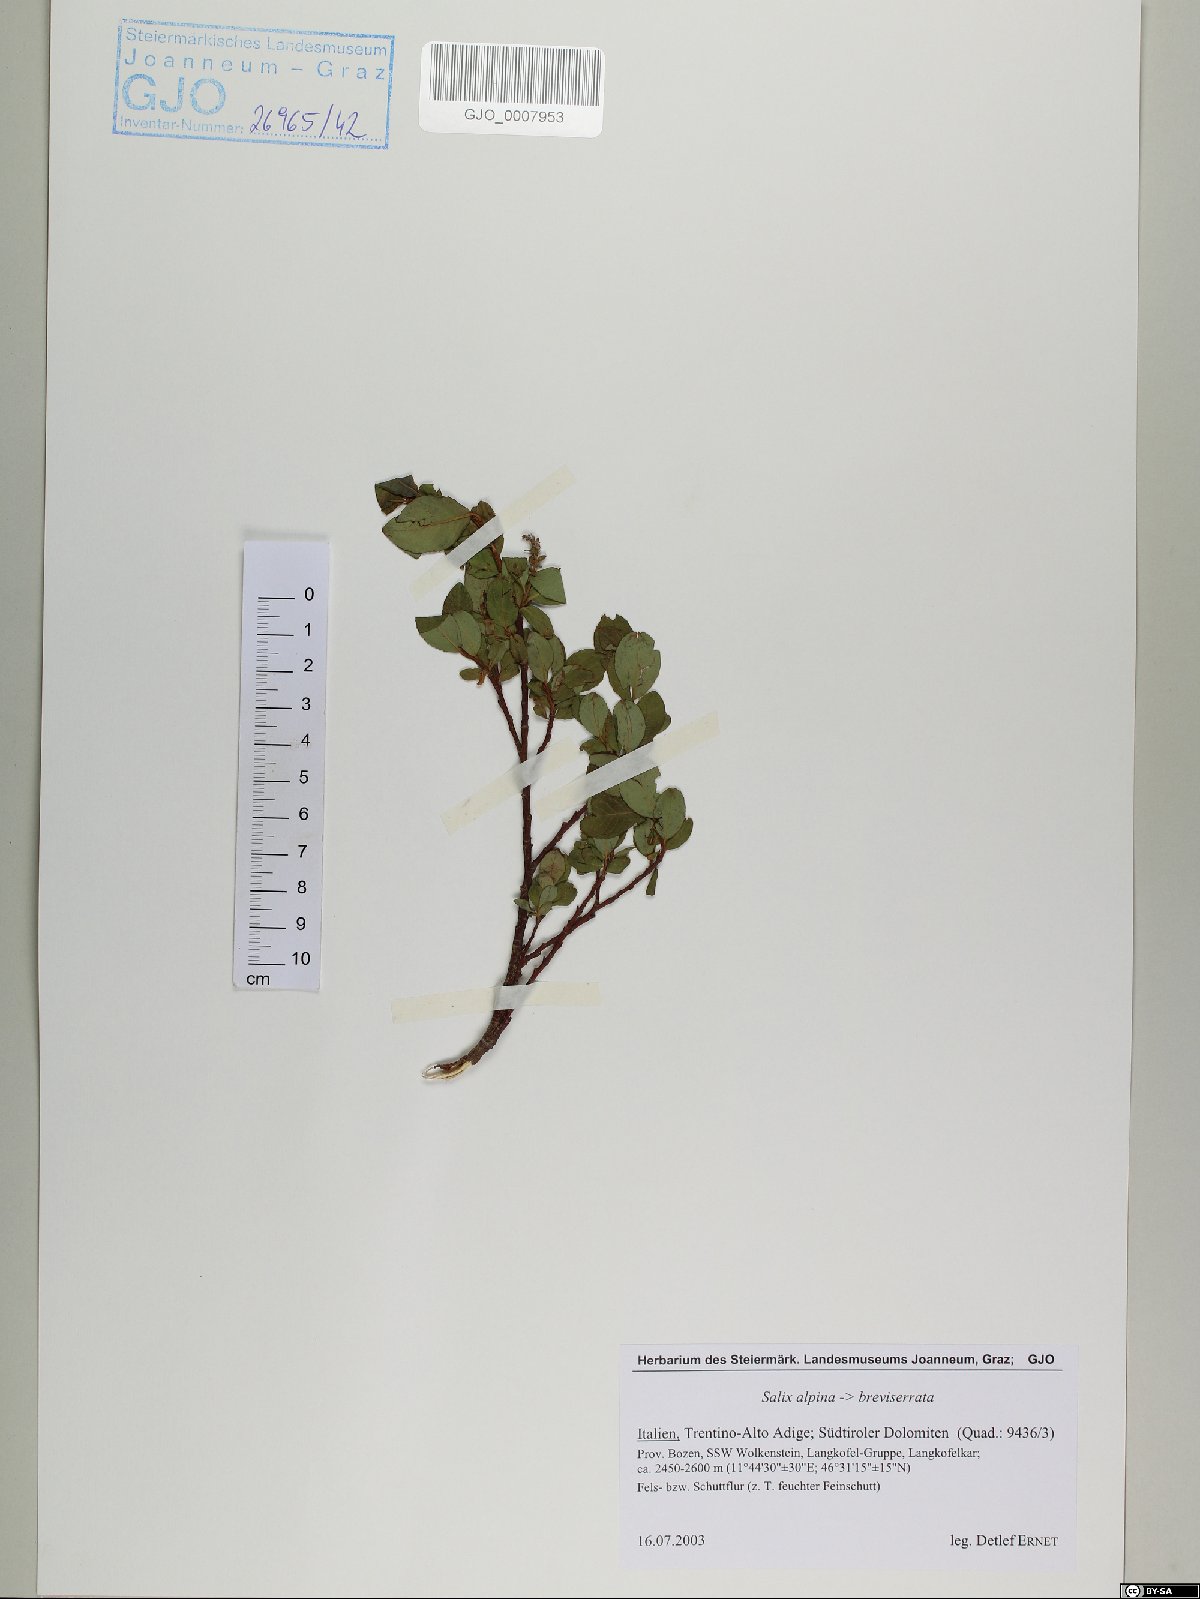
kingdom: Plantae
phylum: Tracheophyta
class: Magnoliopsida
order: Malpighiales
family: Salicaceae
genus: Salix
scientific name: Salix alpina
